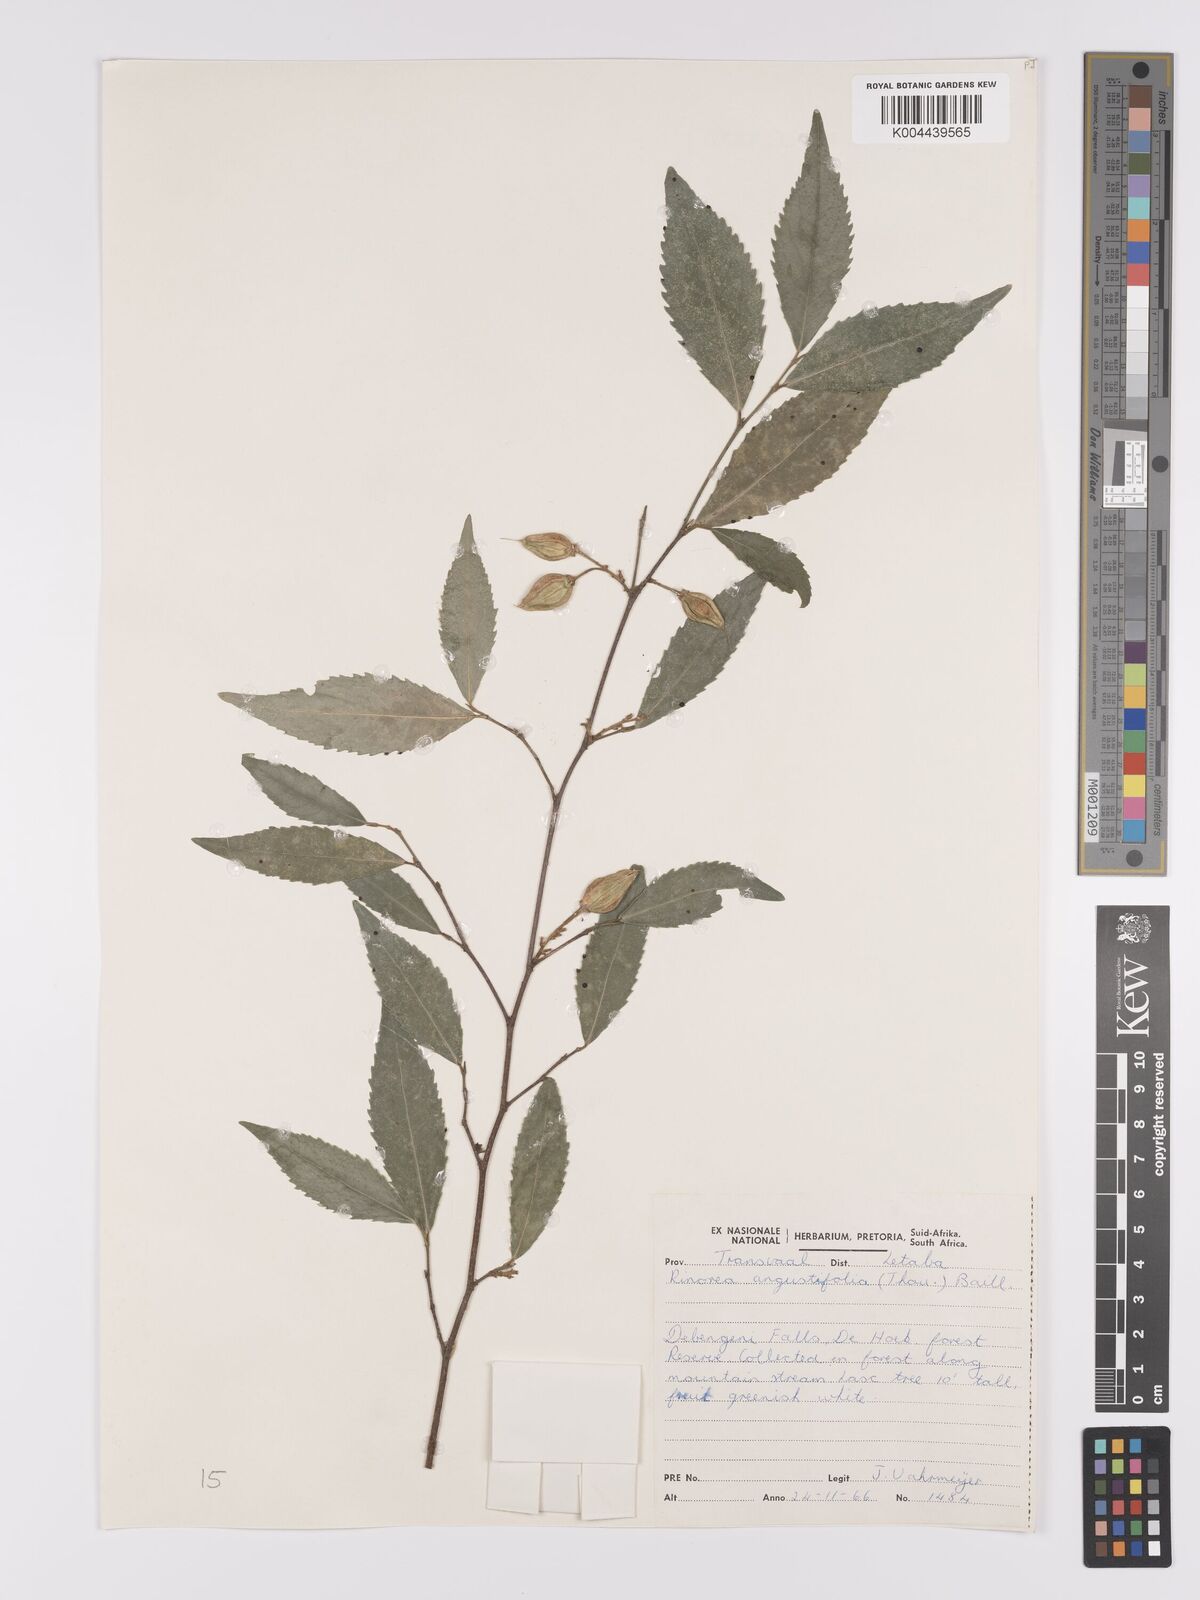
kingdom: Plantae
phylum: Tracheophyta
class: Magnoliopsida
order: Malpighiales
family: Violaceae
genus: Rinorea
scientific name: Rinorea angustifolia
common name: White violet-bush
